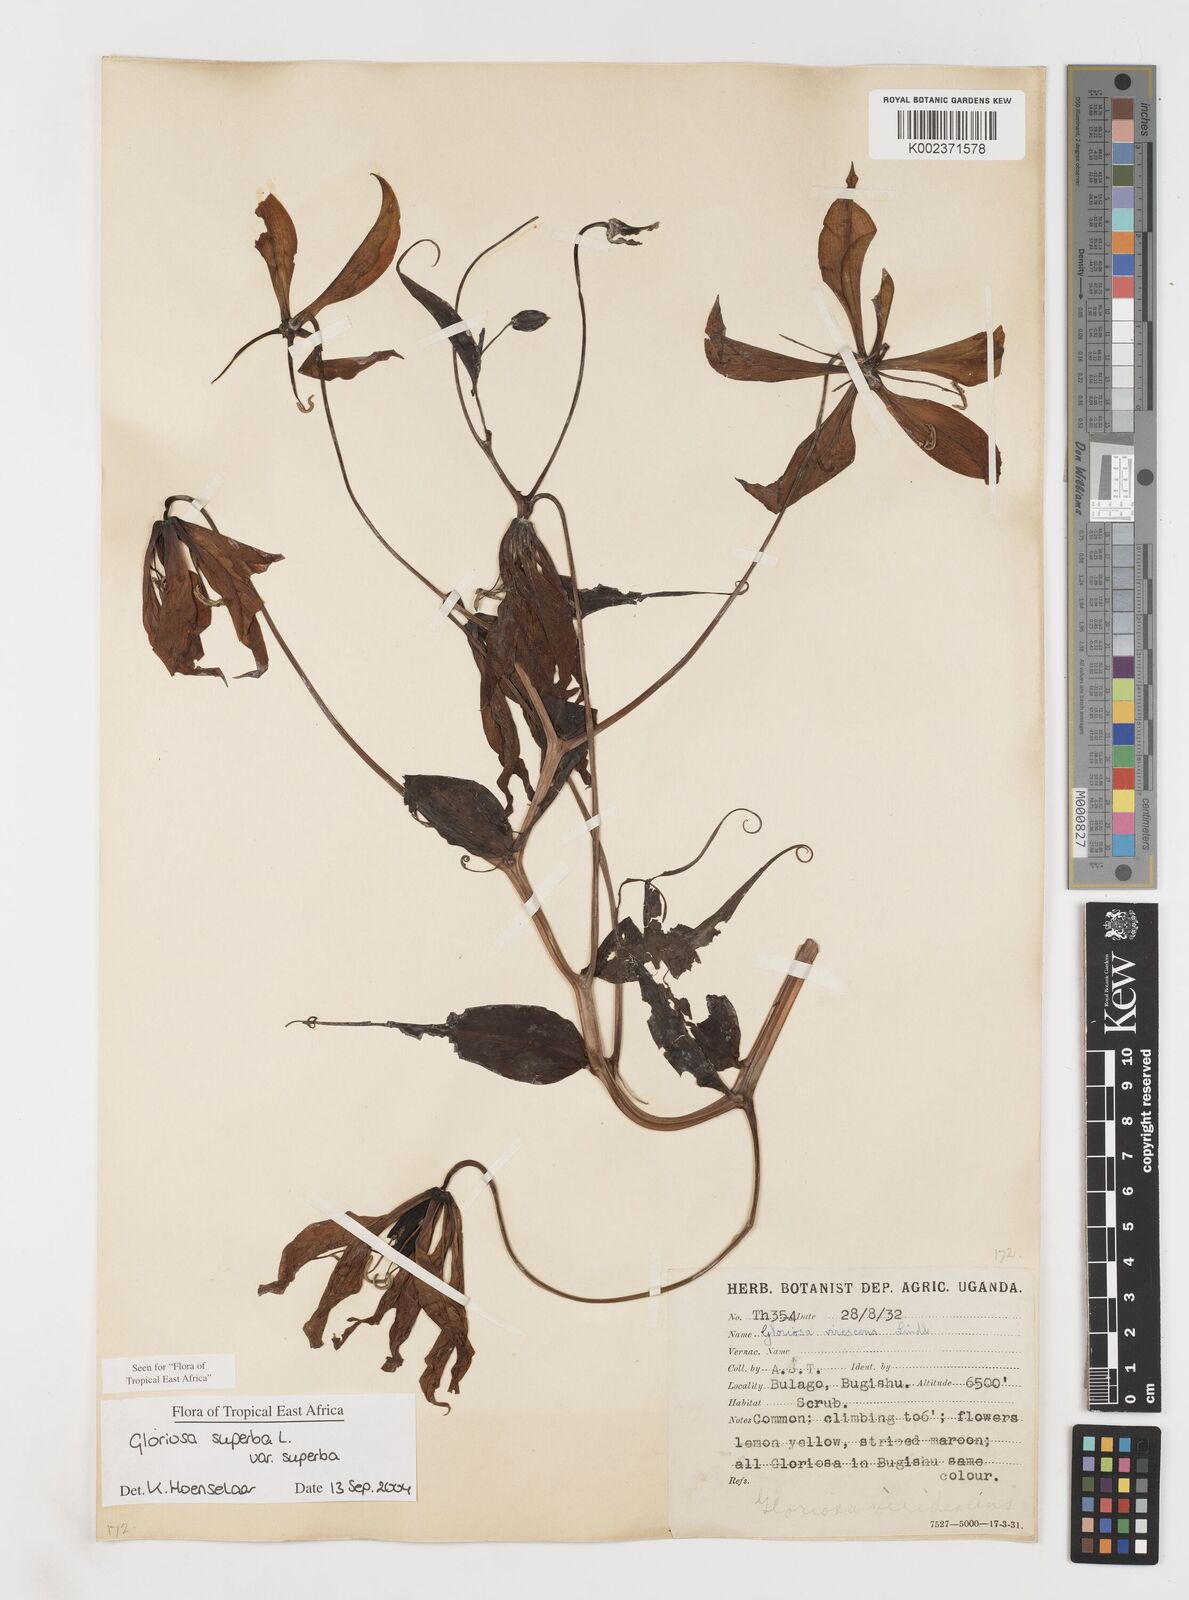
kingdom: Plantae
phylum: Tracheophyta
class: Liliopsida
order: Liliales
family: Colchicaceae
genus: Gloriosa
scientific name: Gloriosa simplex
